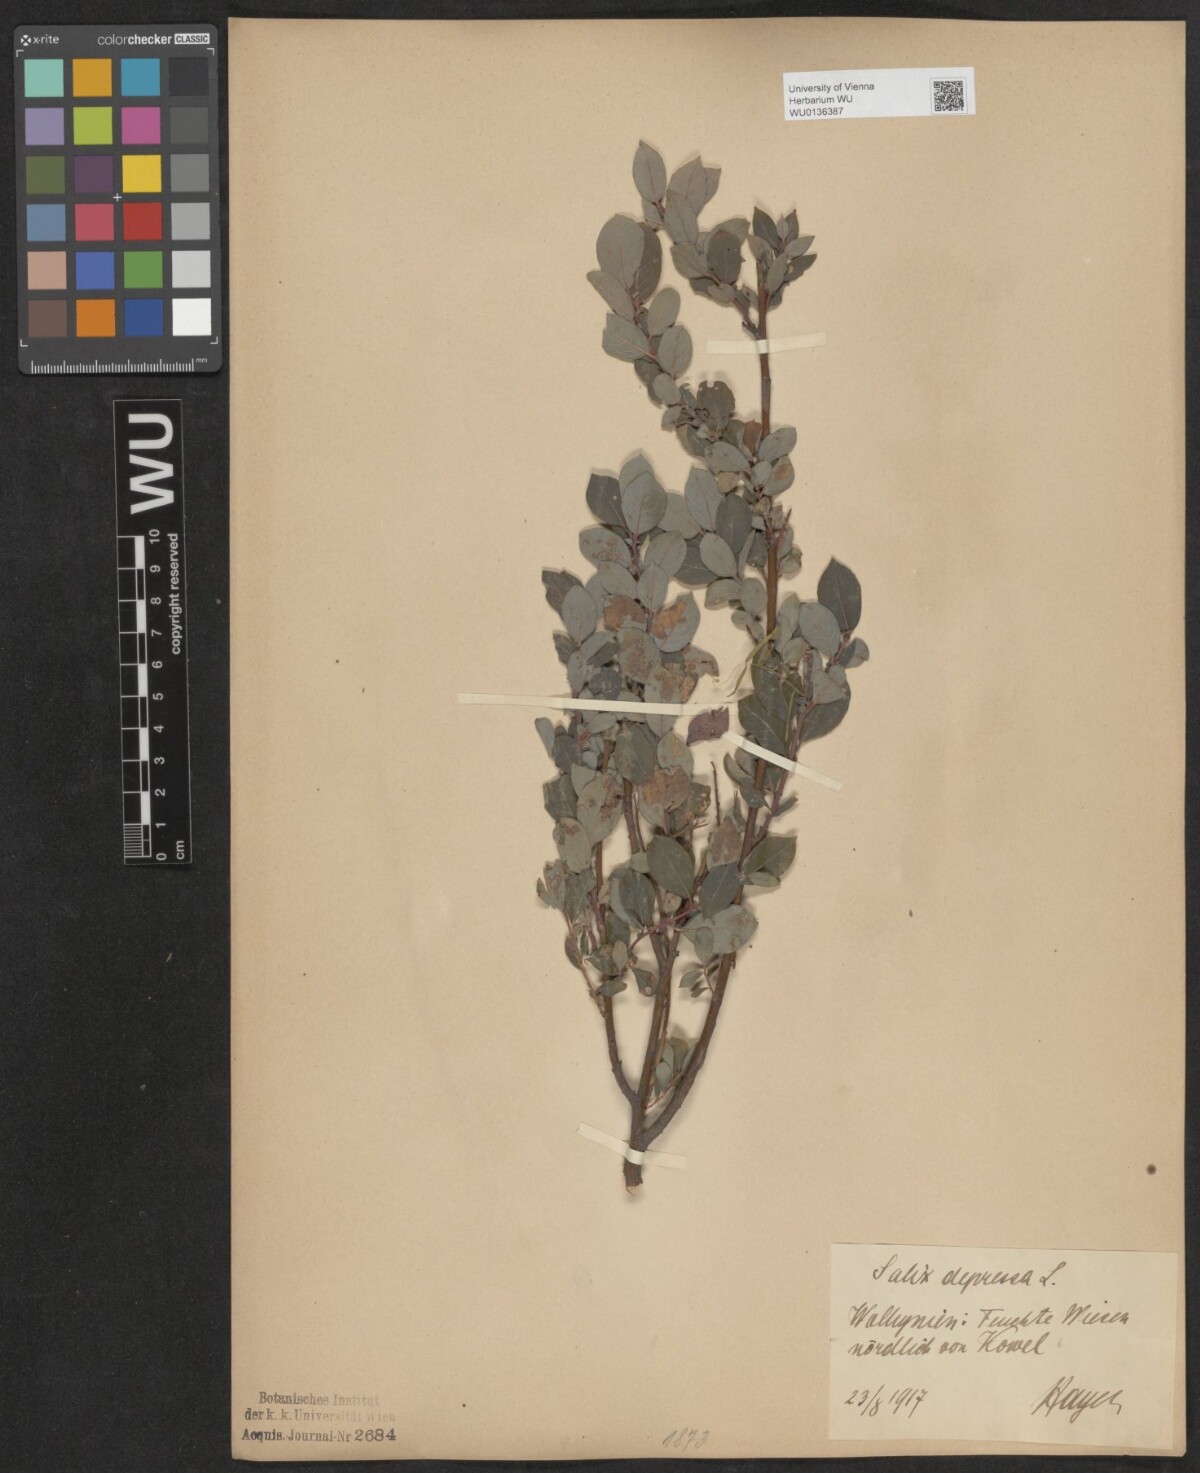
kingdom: Plantae
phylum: Tracheophyta
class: Magnoliopsida
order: Malpighiales
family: Salicaceae
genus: Salix
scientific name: Salix lanata
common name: Woolly willow
